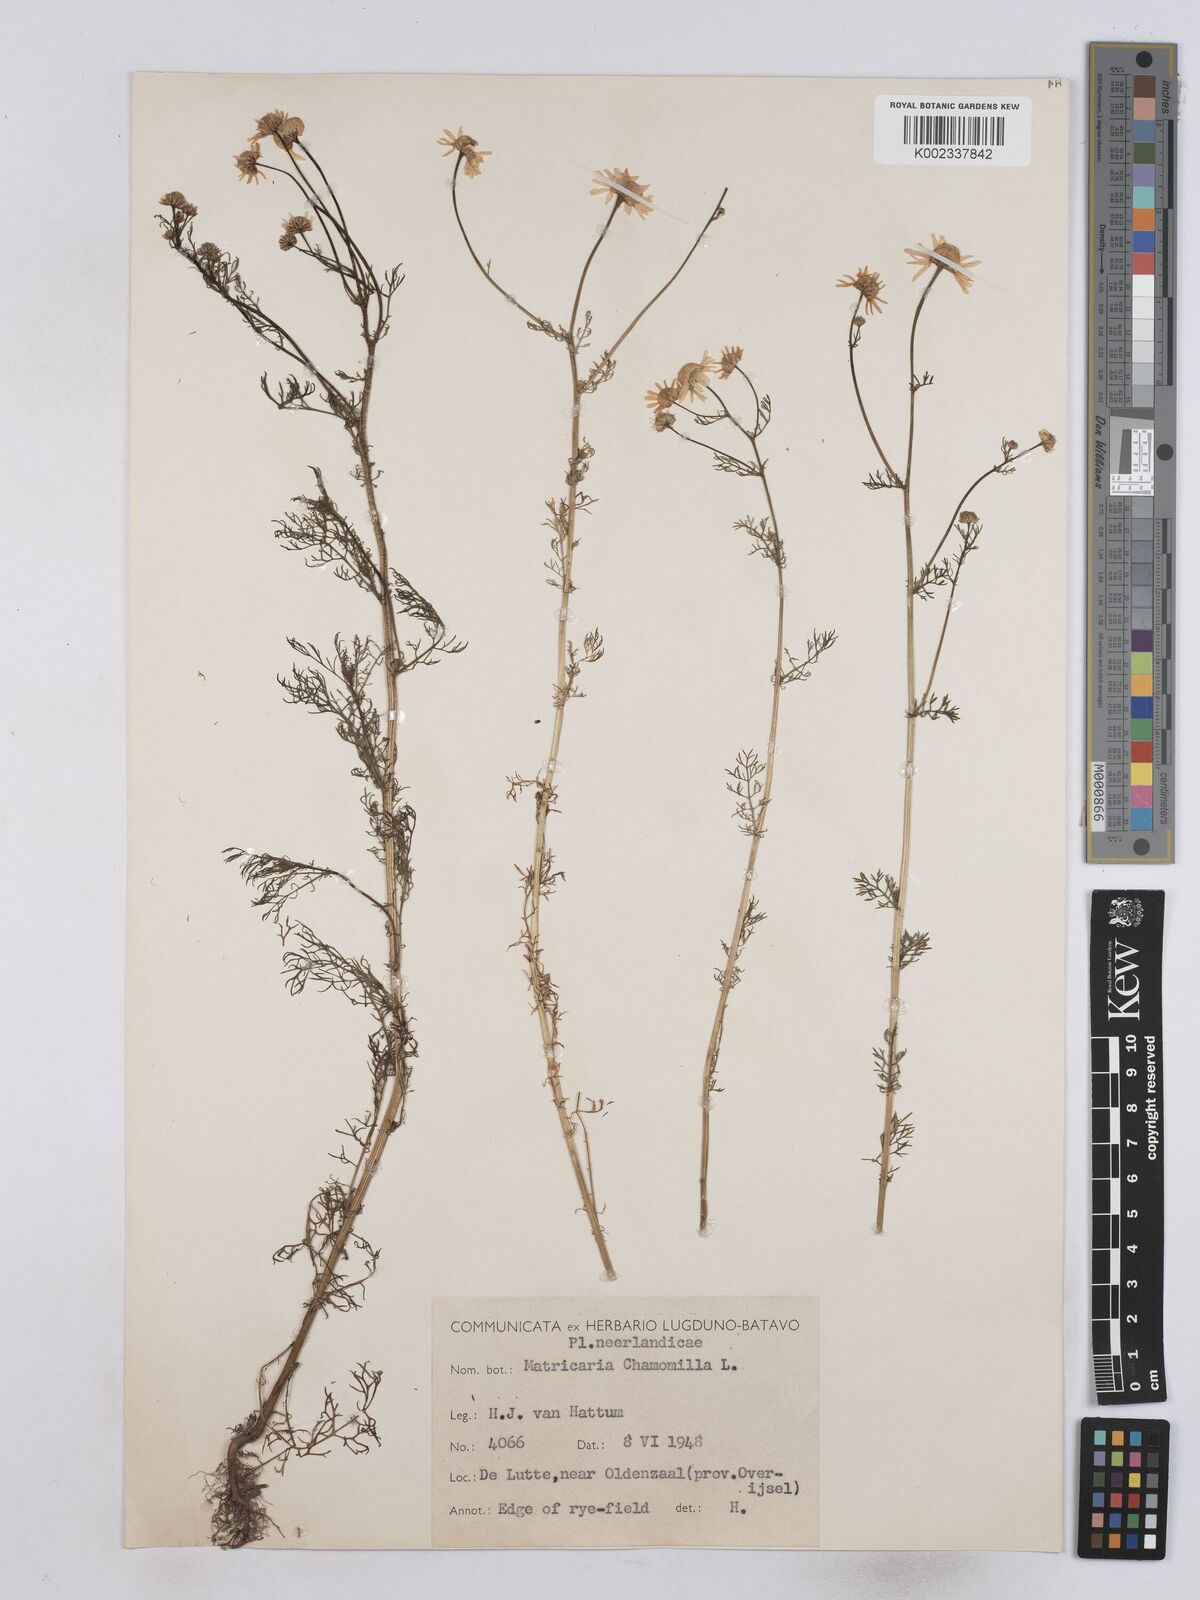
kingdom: Plantae
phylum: Tracheophyta
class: Magnoliopsida
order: Asterales
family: Asteraceae
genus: Matricaria
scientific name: Matricaria chamomilla
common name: Scented mayweed
